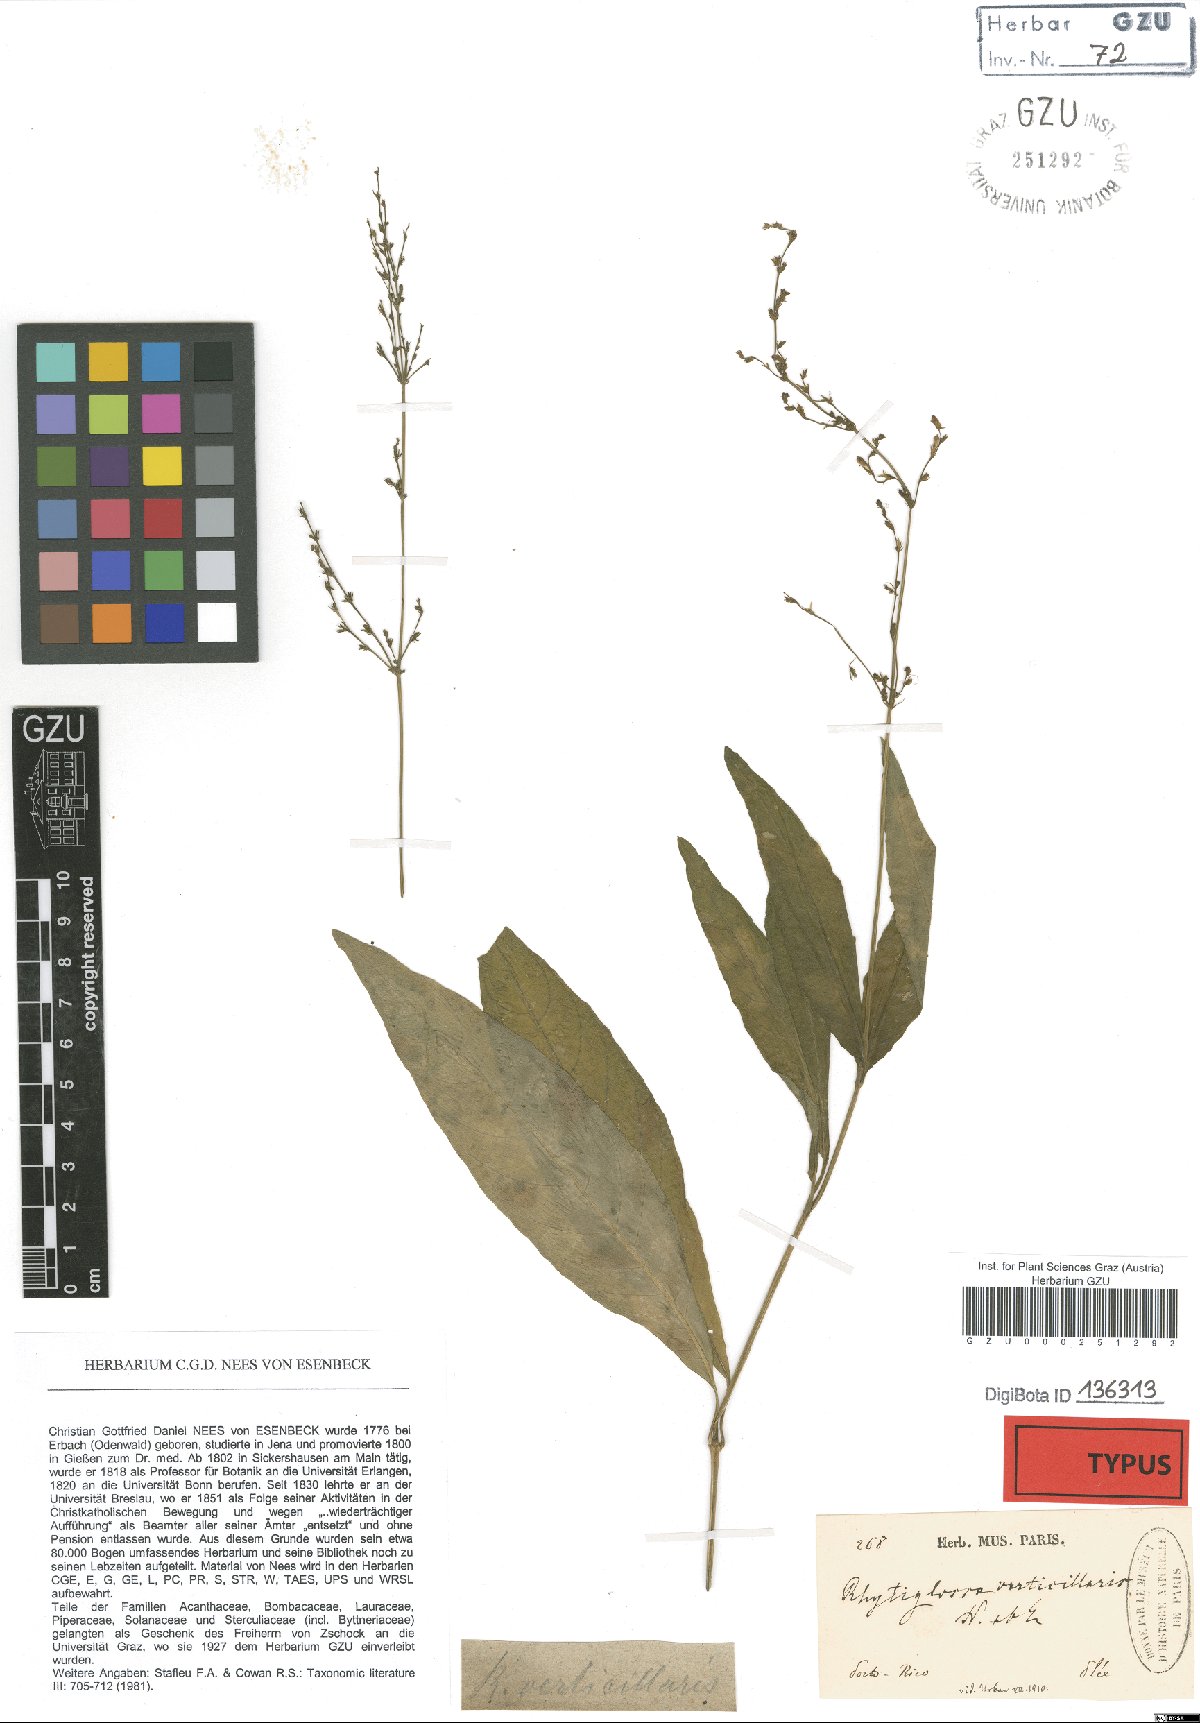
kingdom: Plantae
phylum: Tracheophyta
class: Magnoliopsida
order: Lamiales
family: Acanthaceae
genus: Justicia
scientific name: Justicia martinsoniana
